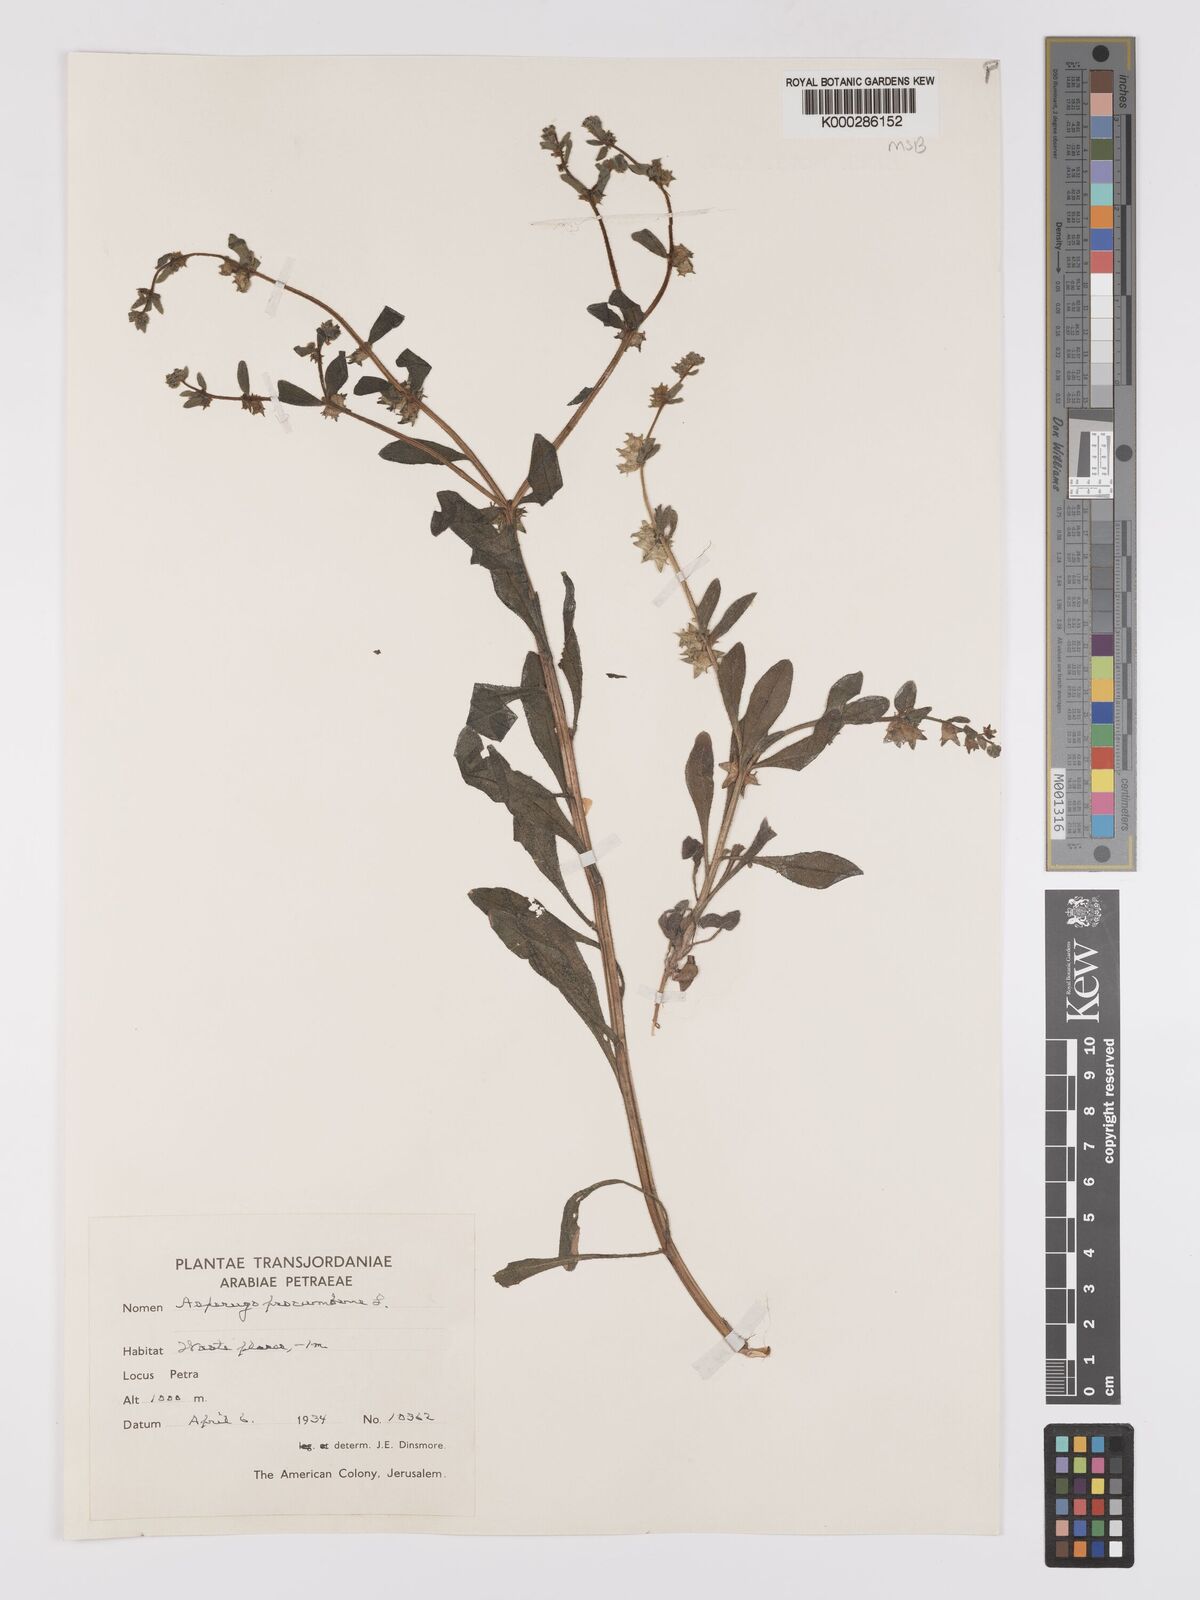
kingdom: Plantae
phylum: Tracheophyta
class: Magnoliopsida
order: Boraginales
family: Boraginaceae
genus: Asperugo
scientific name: Asperugo procumbens
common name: Madwort
